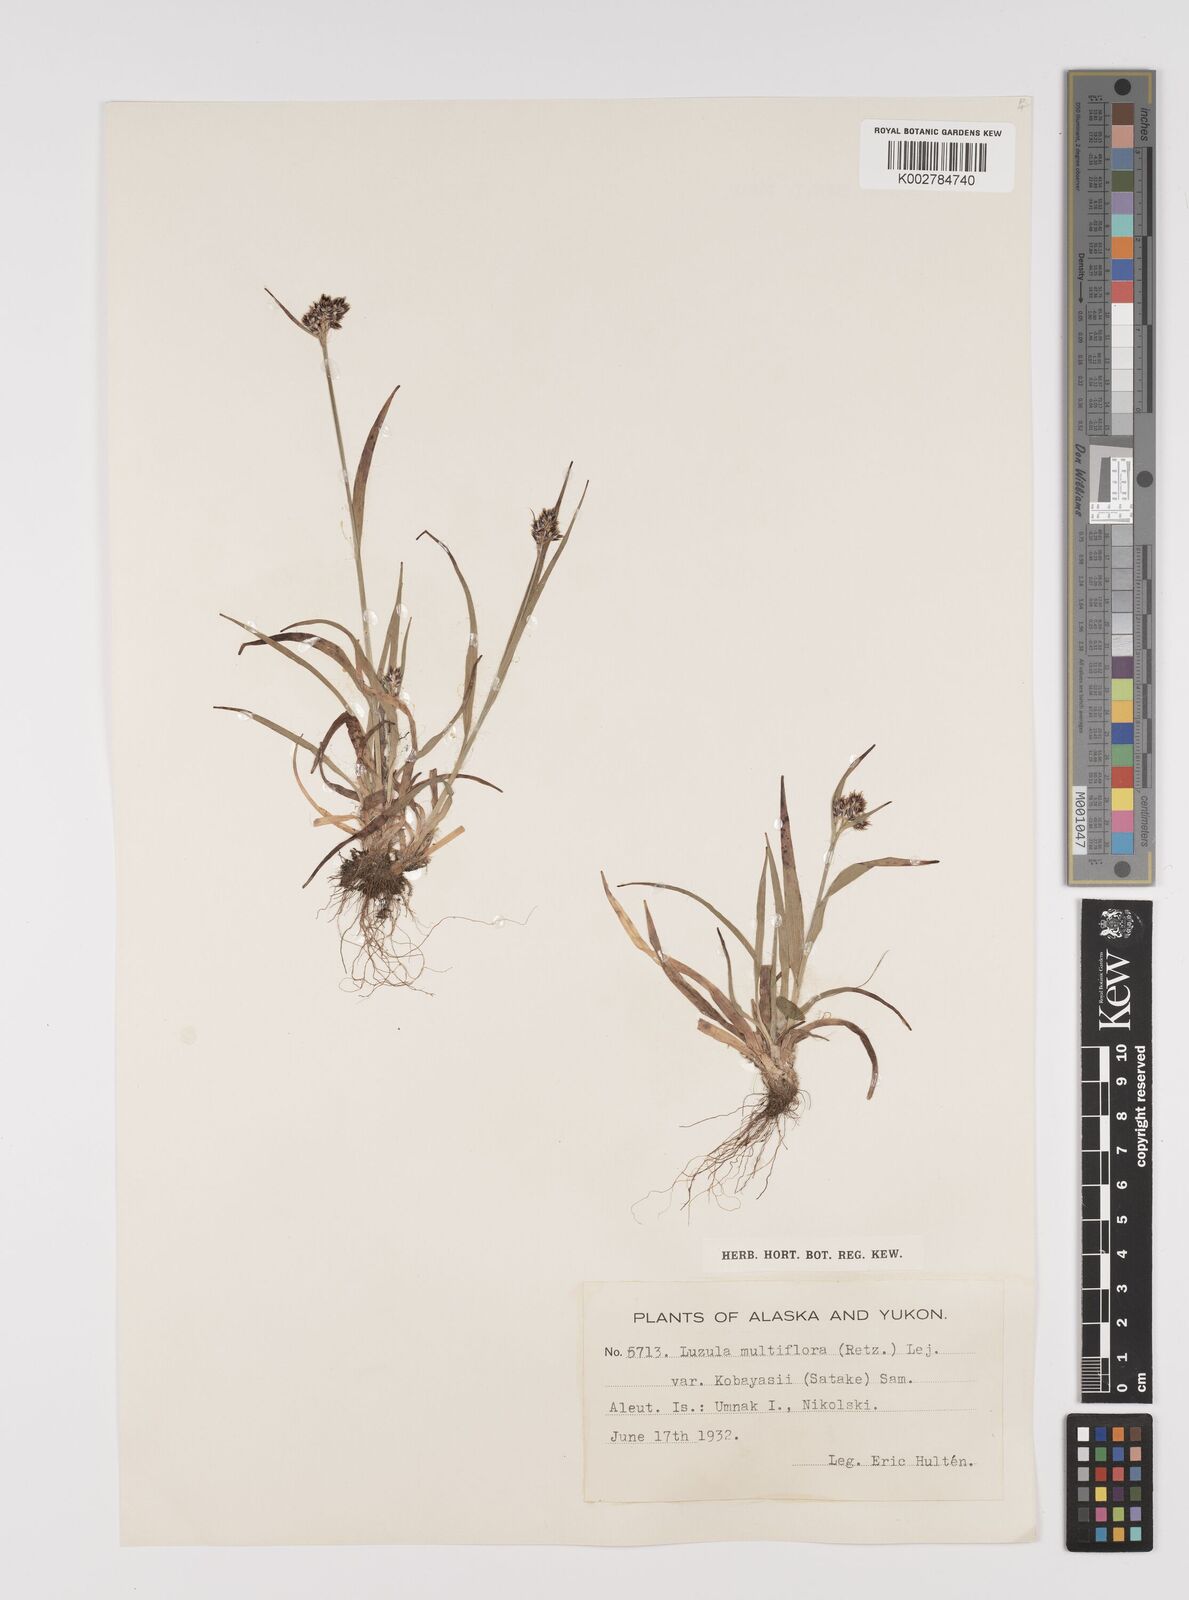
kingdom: Plantae
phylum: Tracheophyta
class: Liliopsida
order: Poales
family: Juncaceae
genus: Luzula
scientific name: Luzula campestris
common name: Field wood-rush
